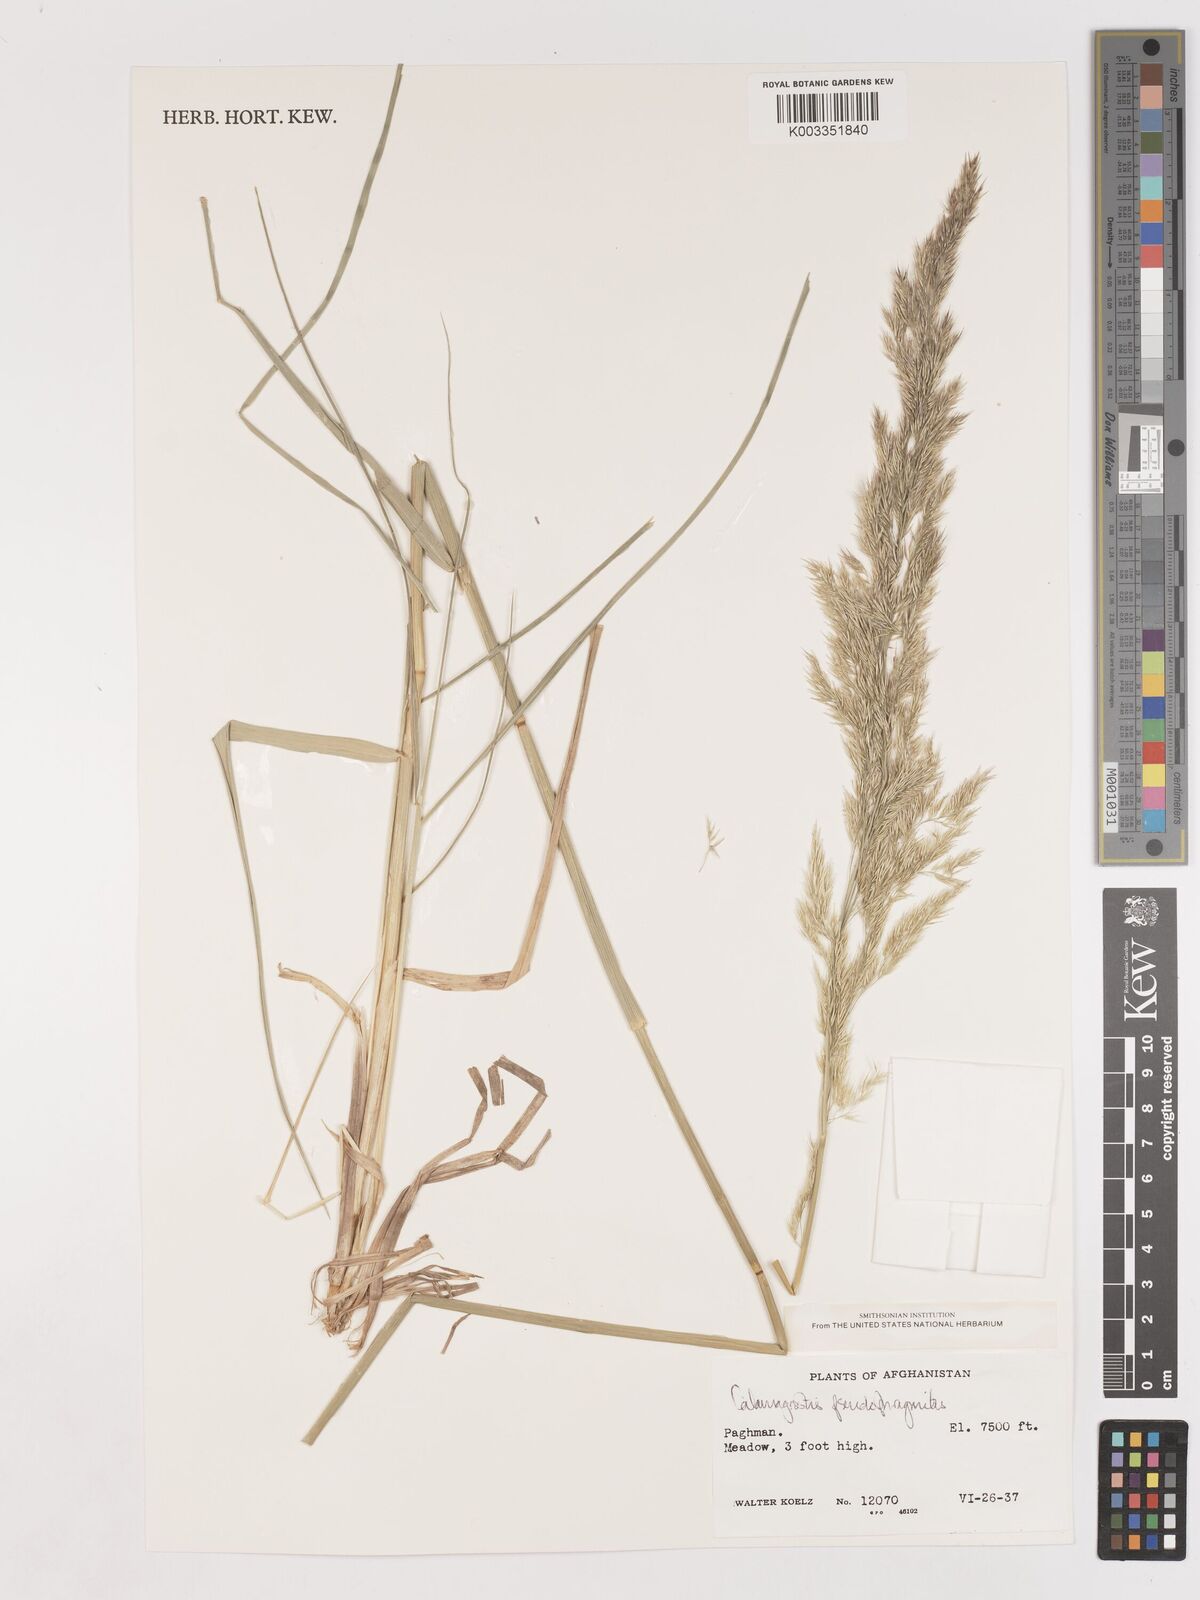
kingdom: Plantae
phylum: Tracheophyta
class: Liliopsida
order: Poales
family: Poaceae
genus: Calamagrostis
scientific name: Calamagrostis purpurea
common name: Scandinavian small-reed
